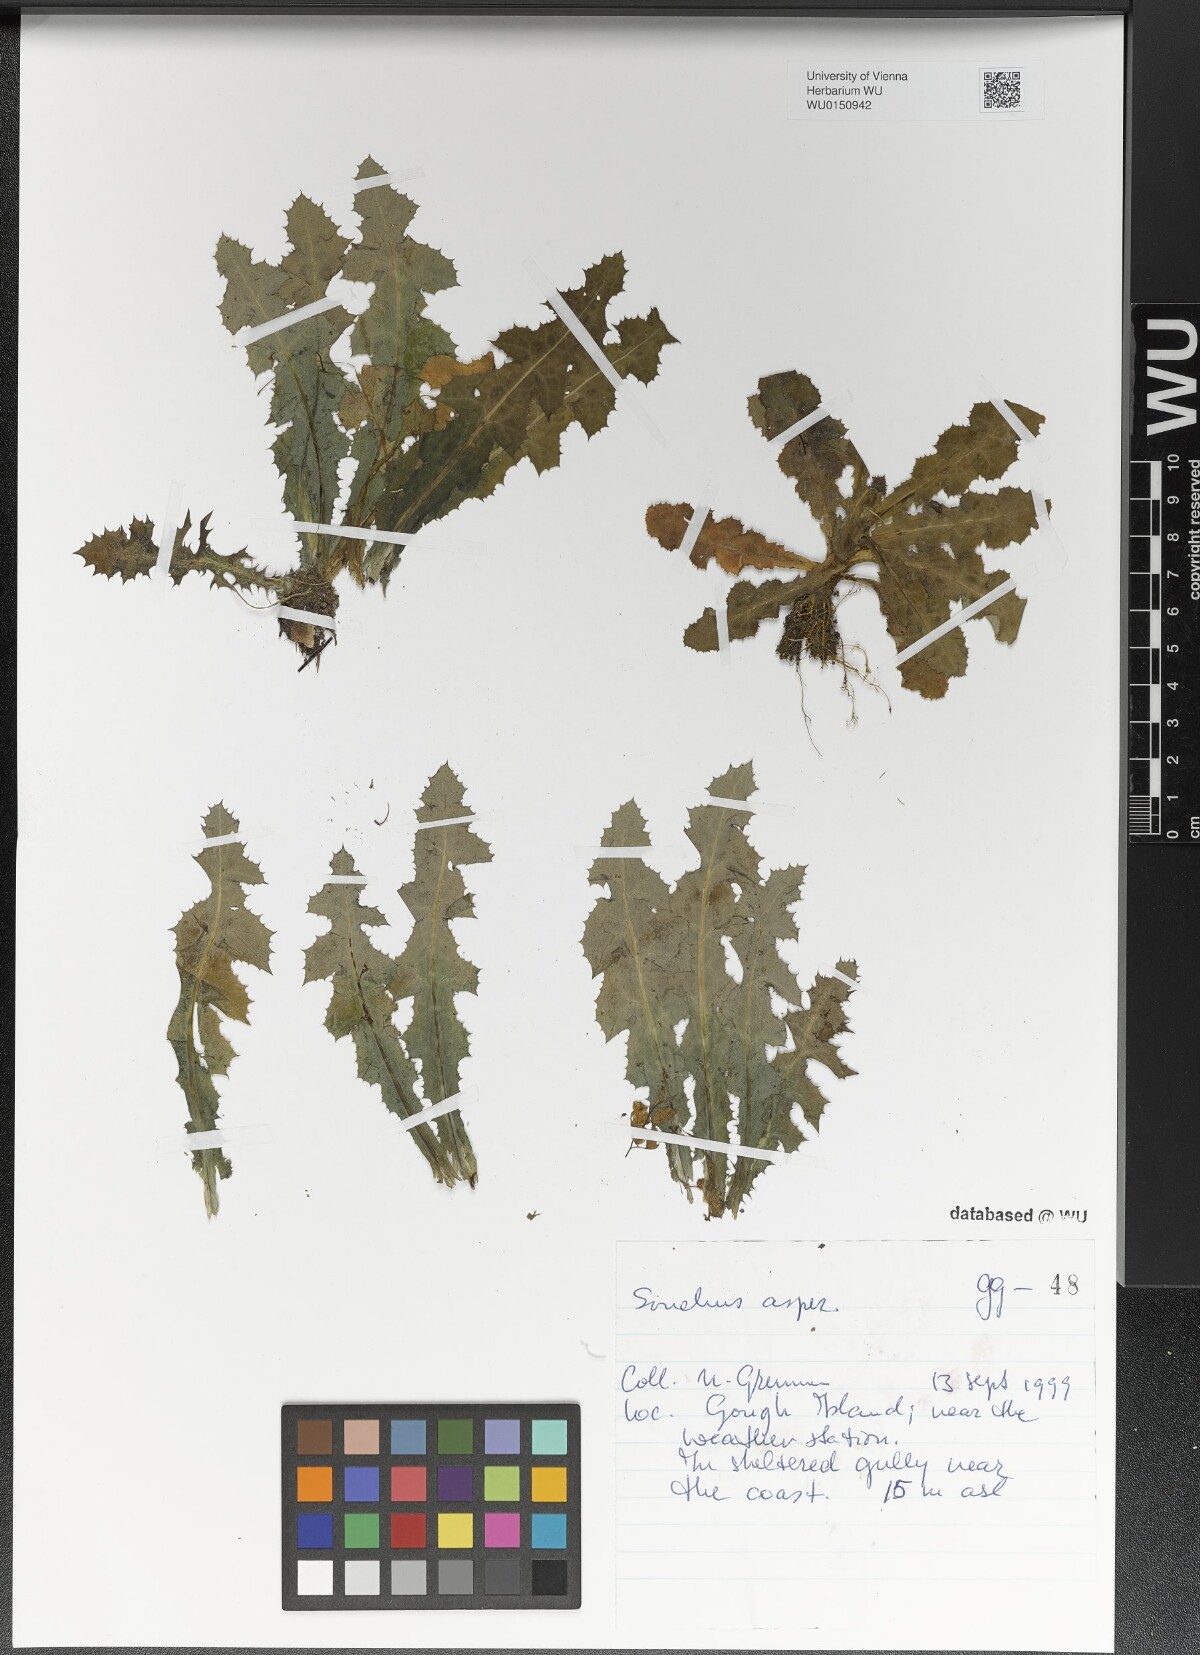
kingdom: Plantae
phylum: Tracheophyta
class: Magnoliopsida
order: Asterales
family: Asteraceae
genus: Sonchus
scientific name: Sonchus asper
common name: Prickly sow-thistle
